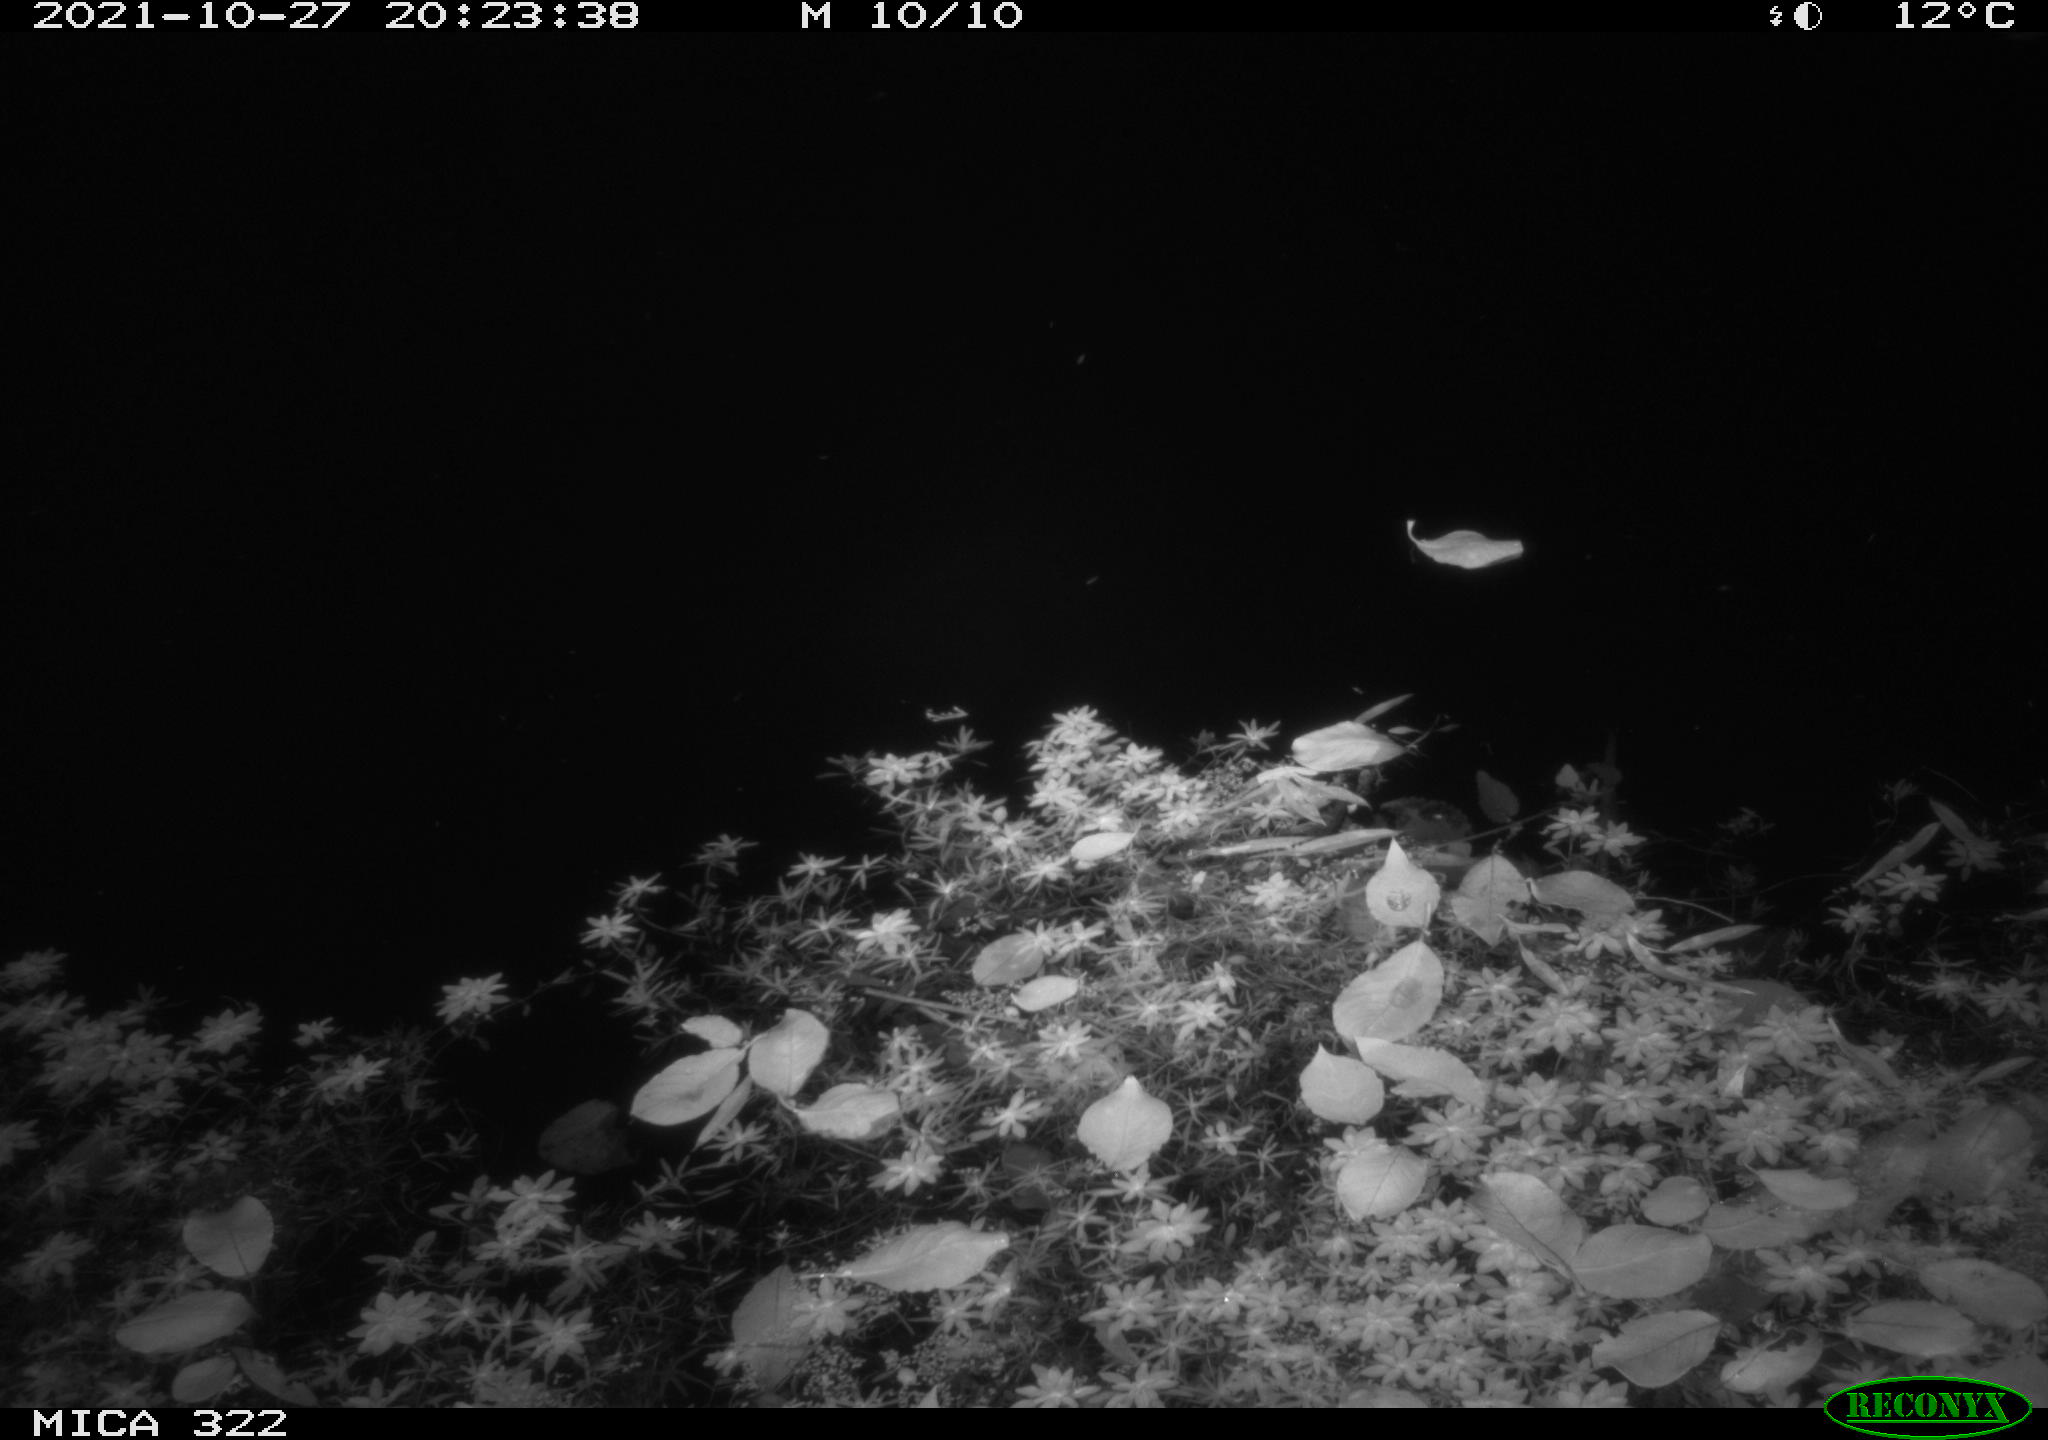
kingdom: Animalia
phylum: Chordata
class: Mammalia
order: Rodentia
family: Muridae
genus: Rattus
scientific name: Rattus norvegicus
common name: Brown rat
